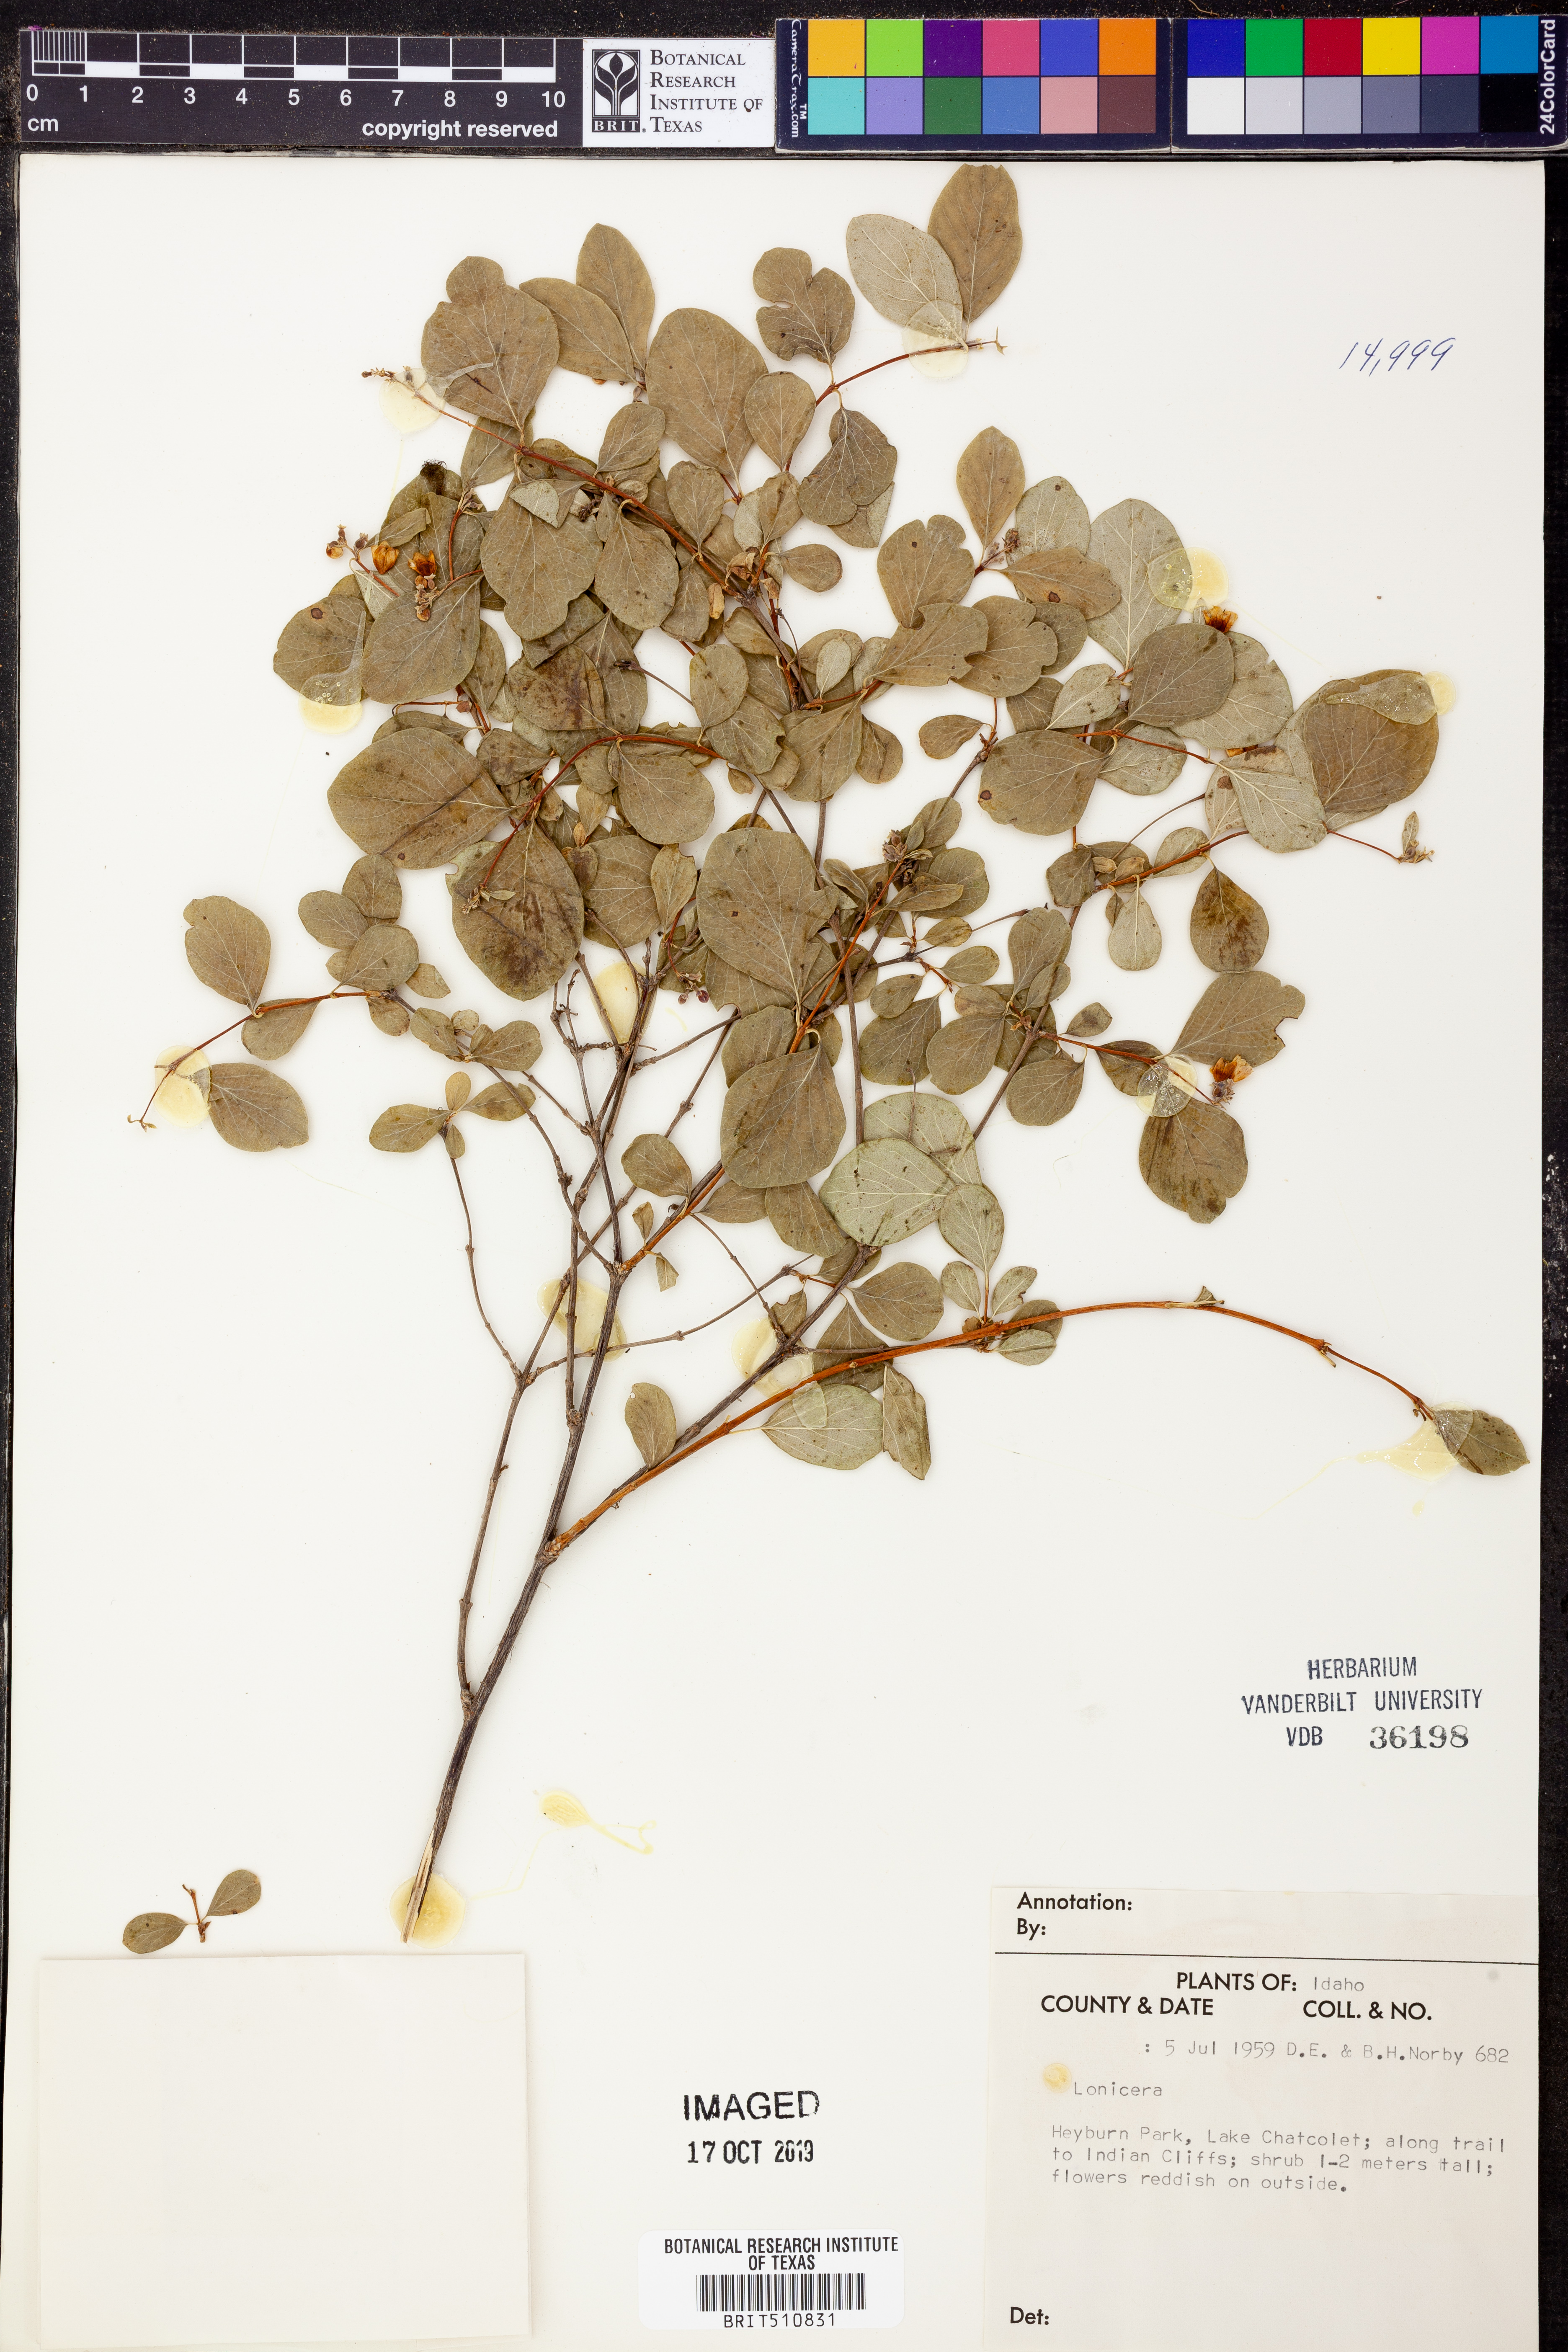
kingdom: Plantae
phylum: Tracheophyta
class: Magnoliopsida
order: Dipsacales
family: Caprifoliaceae
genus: Lonicera
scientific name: Lonicera
